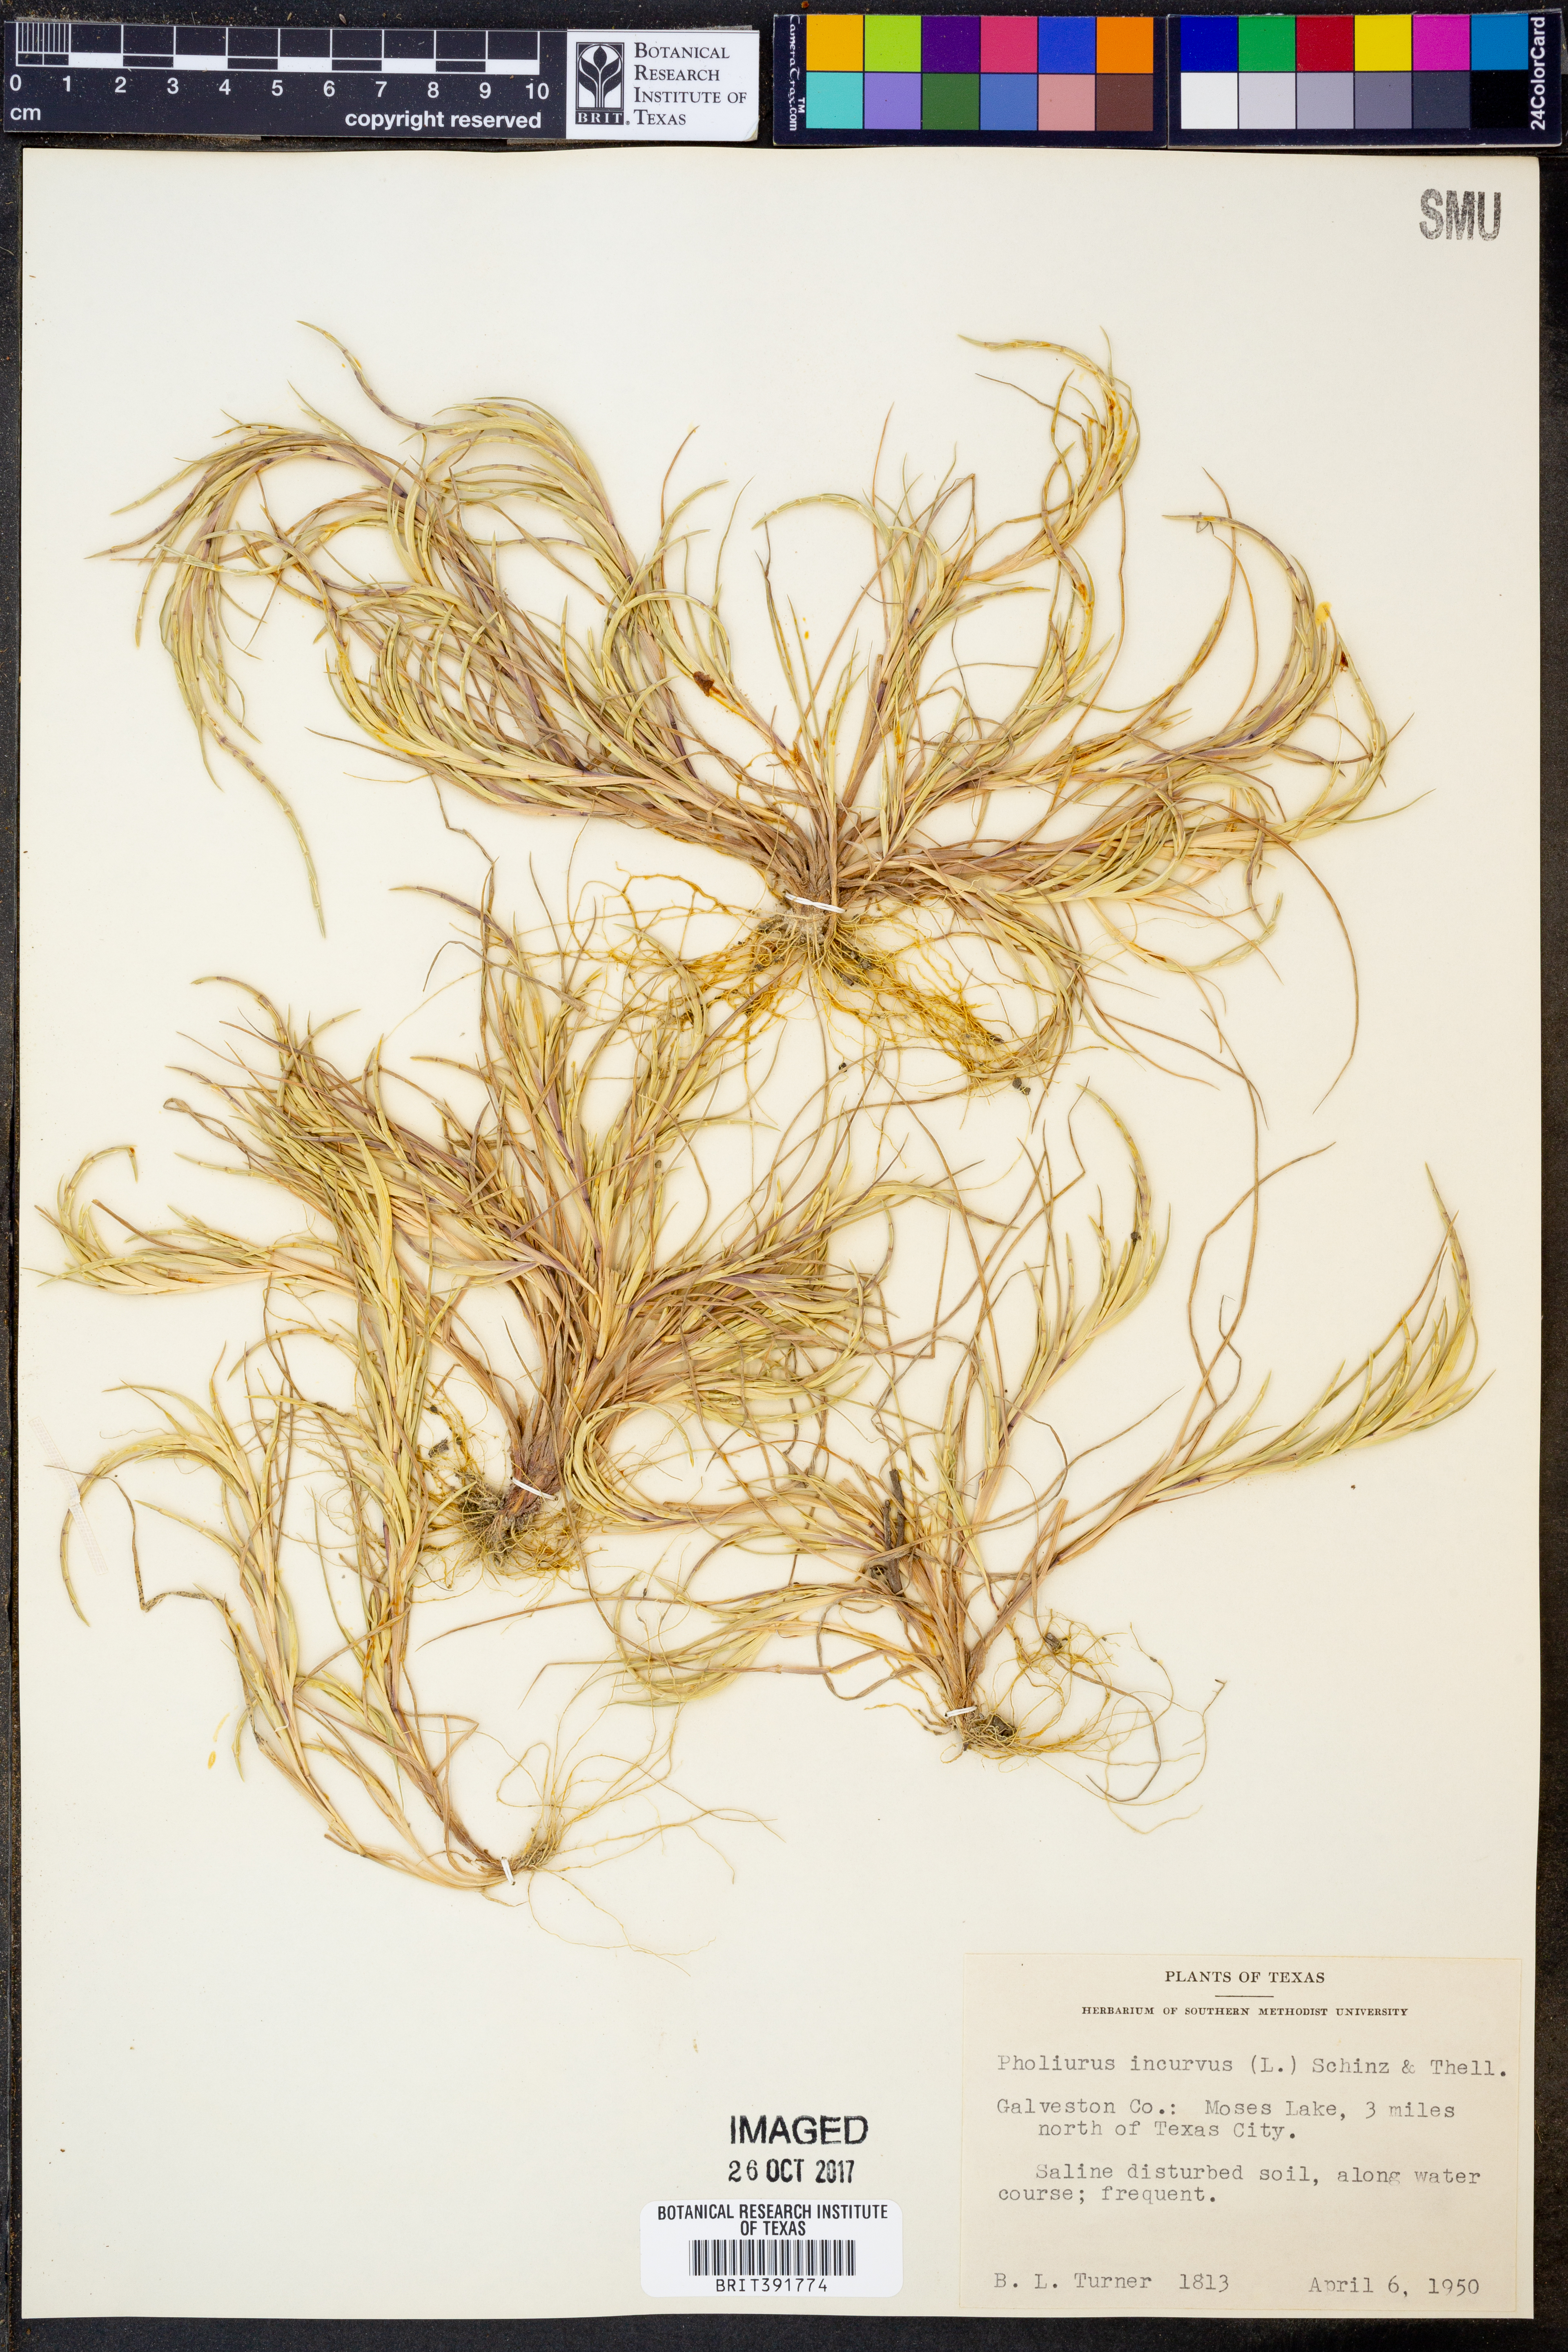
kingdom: Plantae
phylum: Tracheophyta
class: Liliopsida
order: Poales
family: Poaceae
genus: Parapholis
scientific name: Parapholis incurva
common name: Curved sicklegrass
